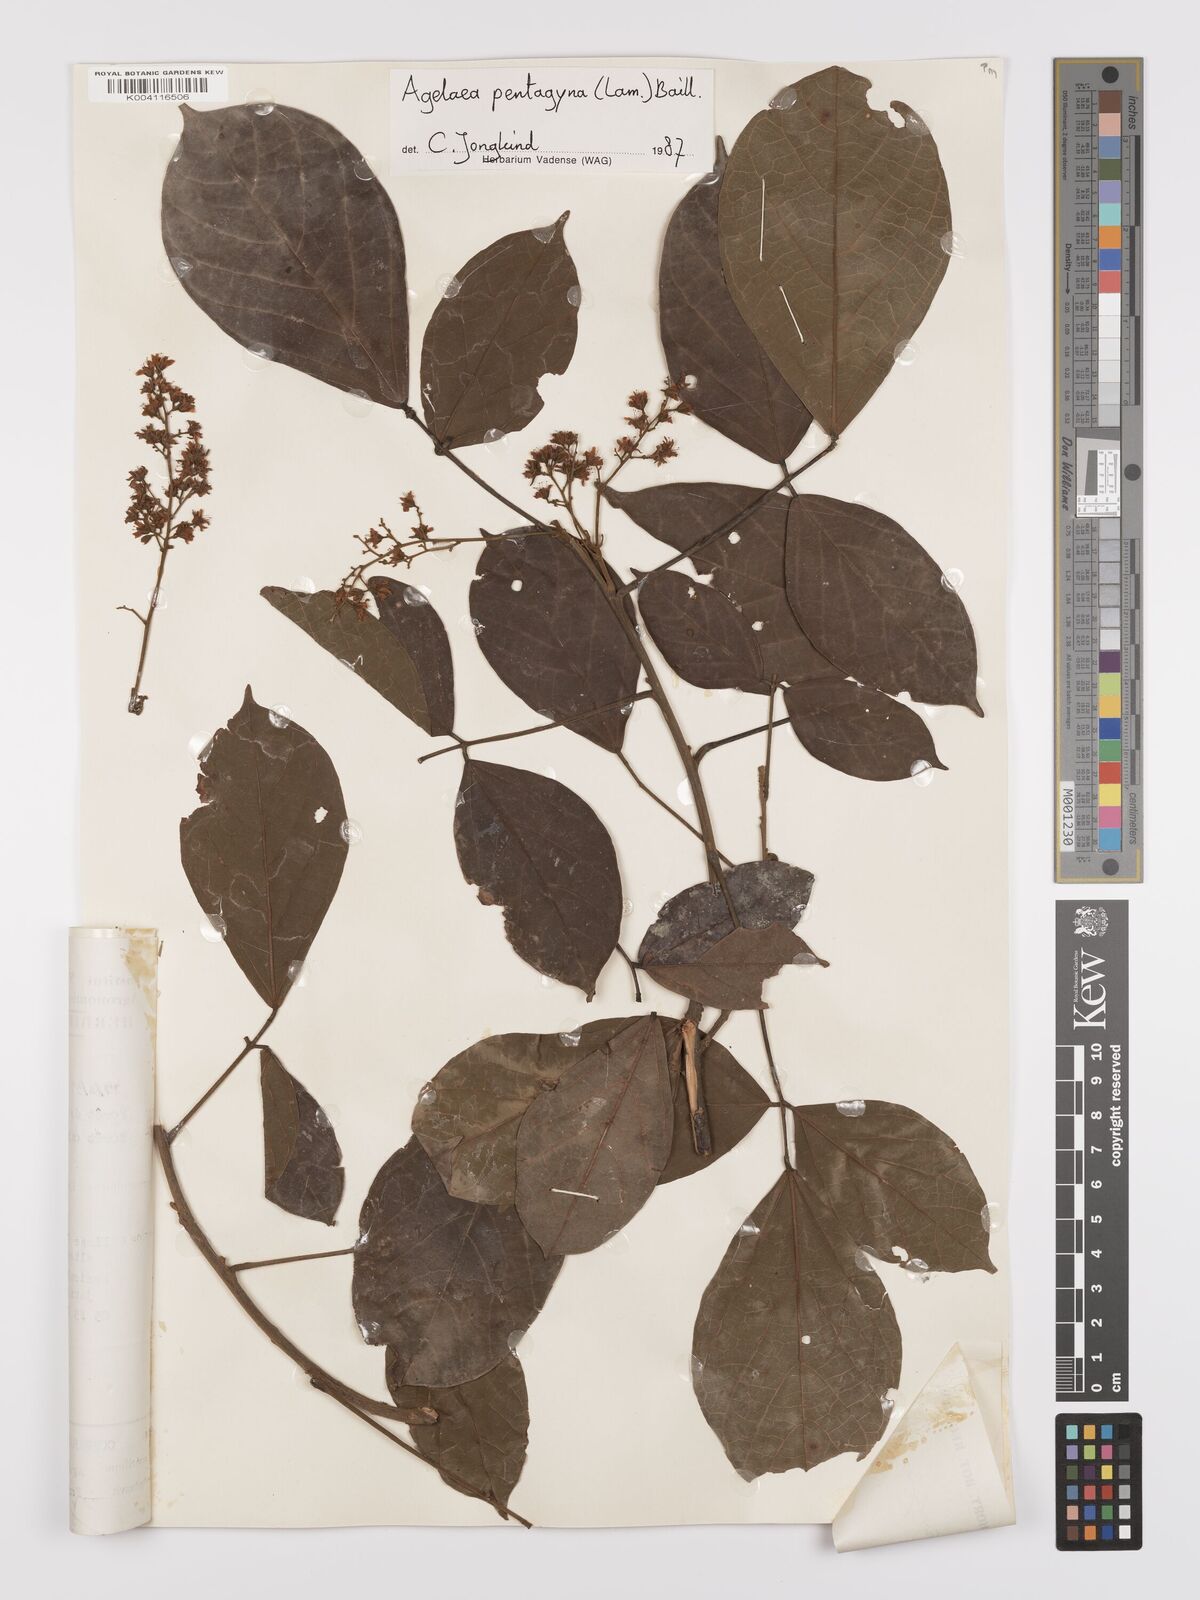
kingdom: Plantae
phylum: Tracheophyta
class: Magnoliopsida
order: Oxalidales
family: Connaraceae
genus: Agelaea
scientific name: Agelaea pentagyna
